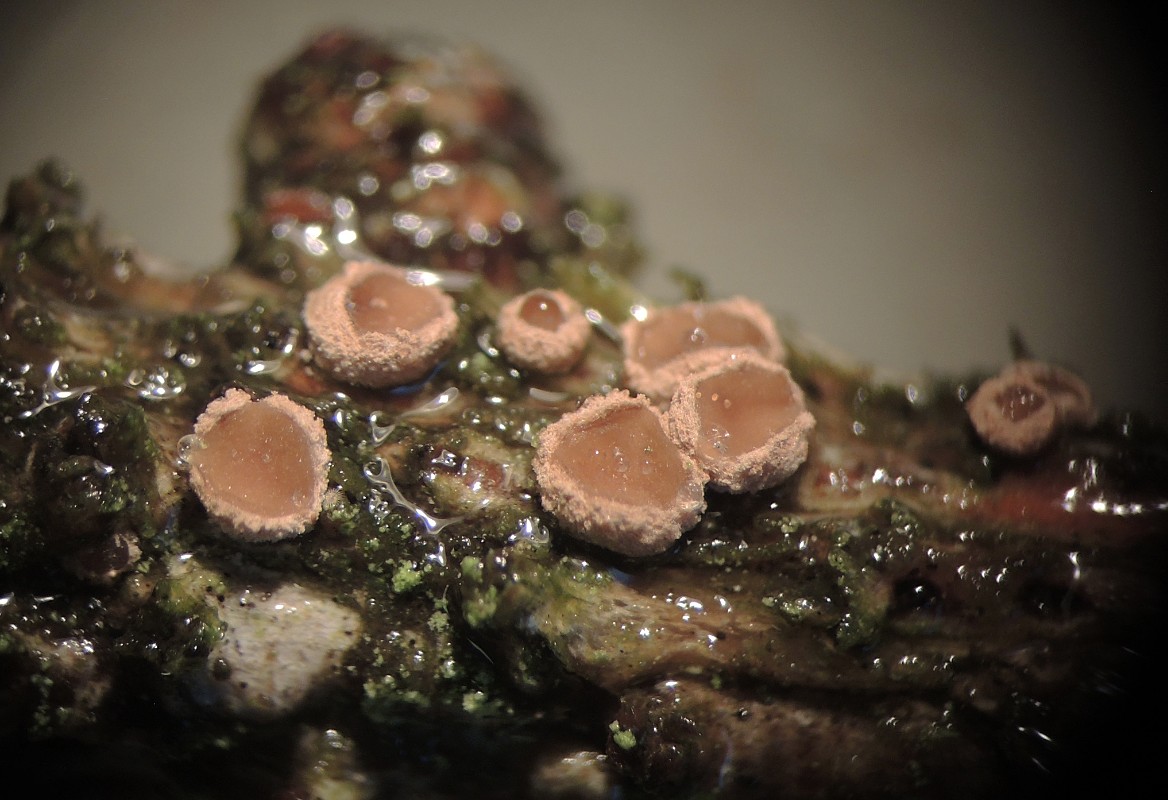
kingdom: Fungi
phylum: Ascomycota
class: Leotiomycetes
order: Helotiales
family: Cenangiaceae
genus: Velutarina
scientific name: Velutarina rufo-olivacea
